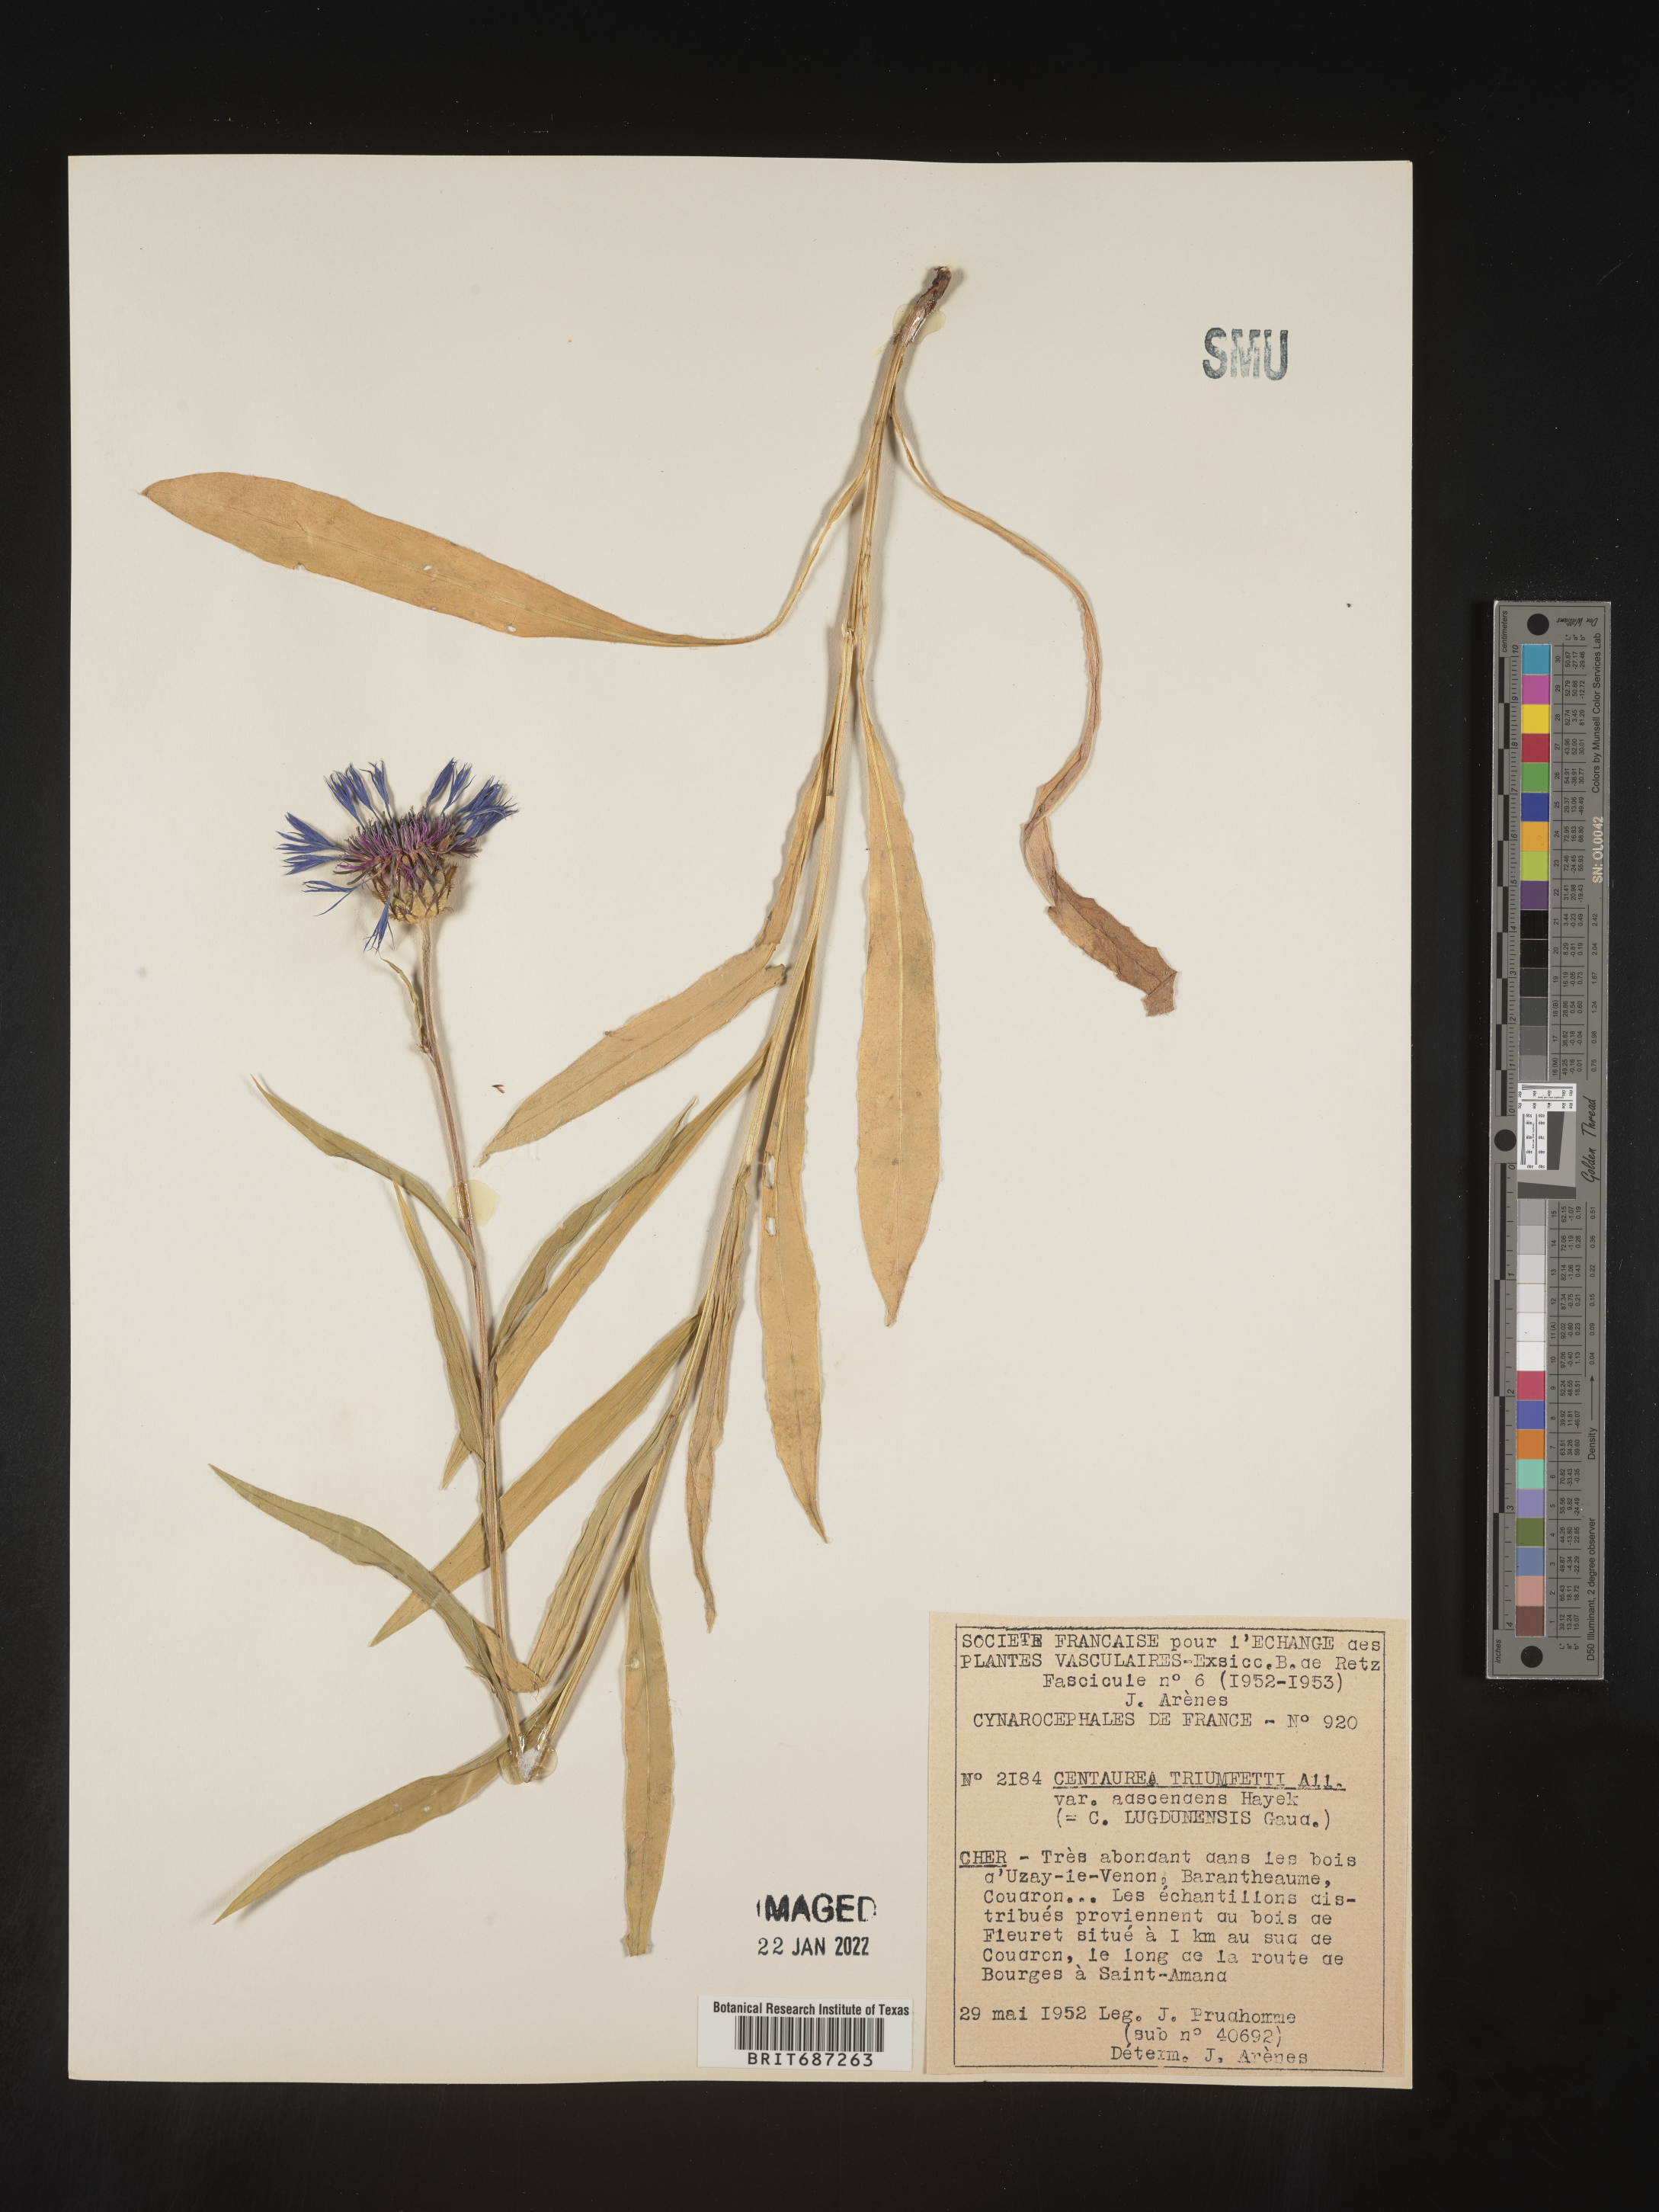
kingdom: Plantae
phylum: Tracheophyta
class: Magnoliopsida
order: Asterales
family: Asteraceae
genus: Centaurea
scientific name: Centaurea
